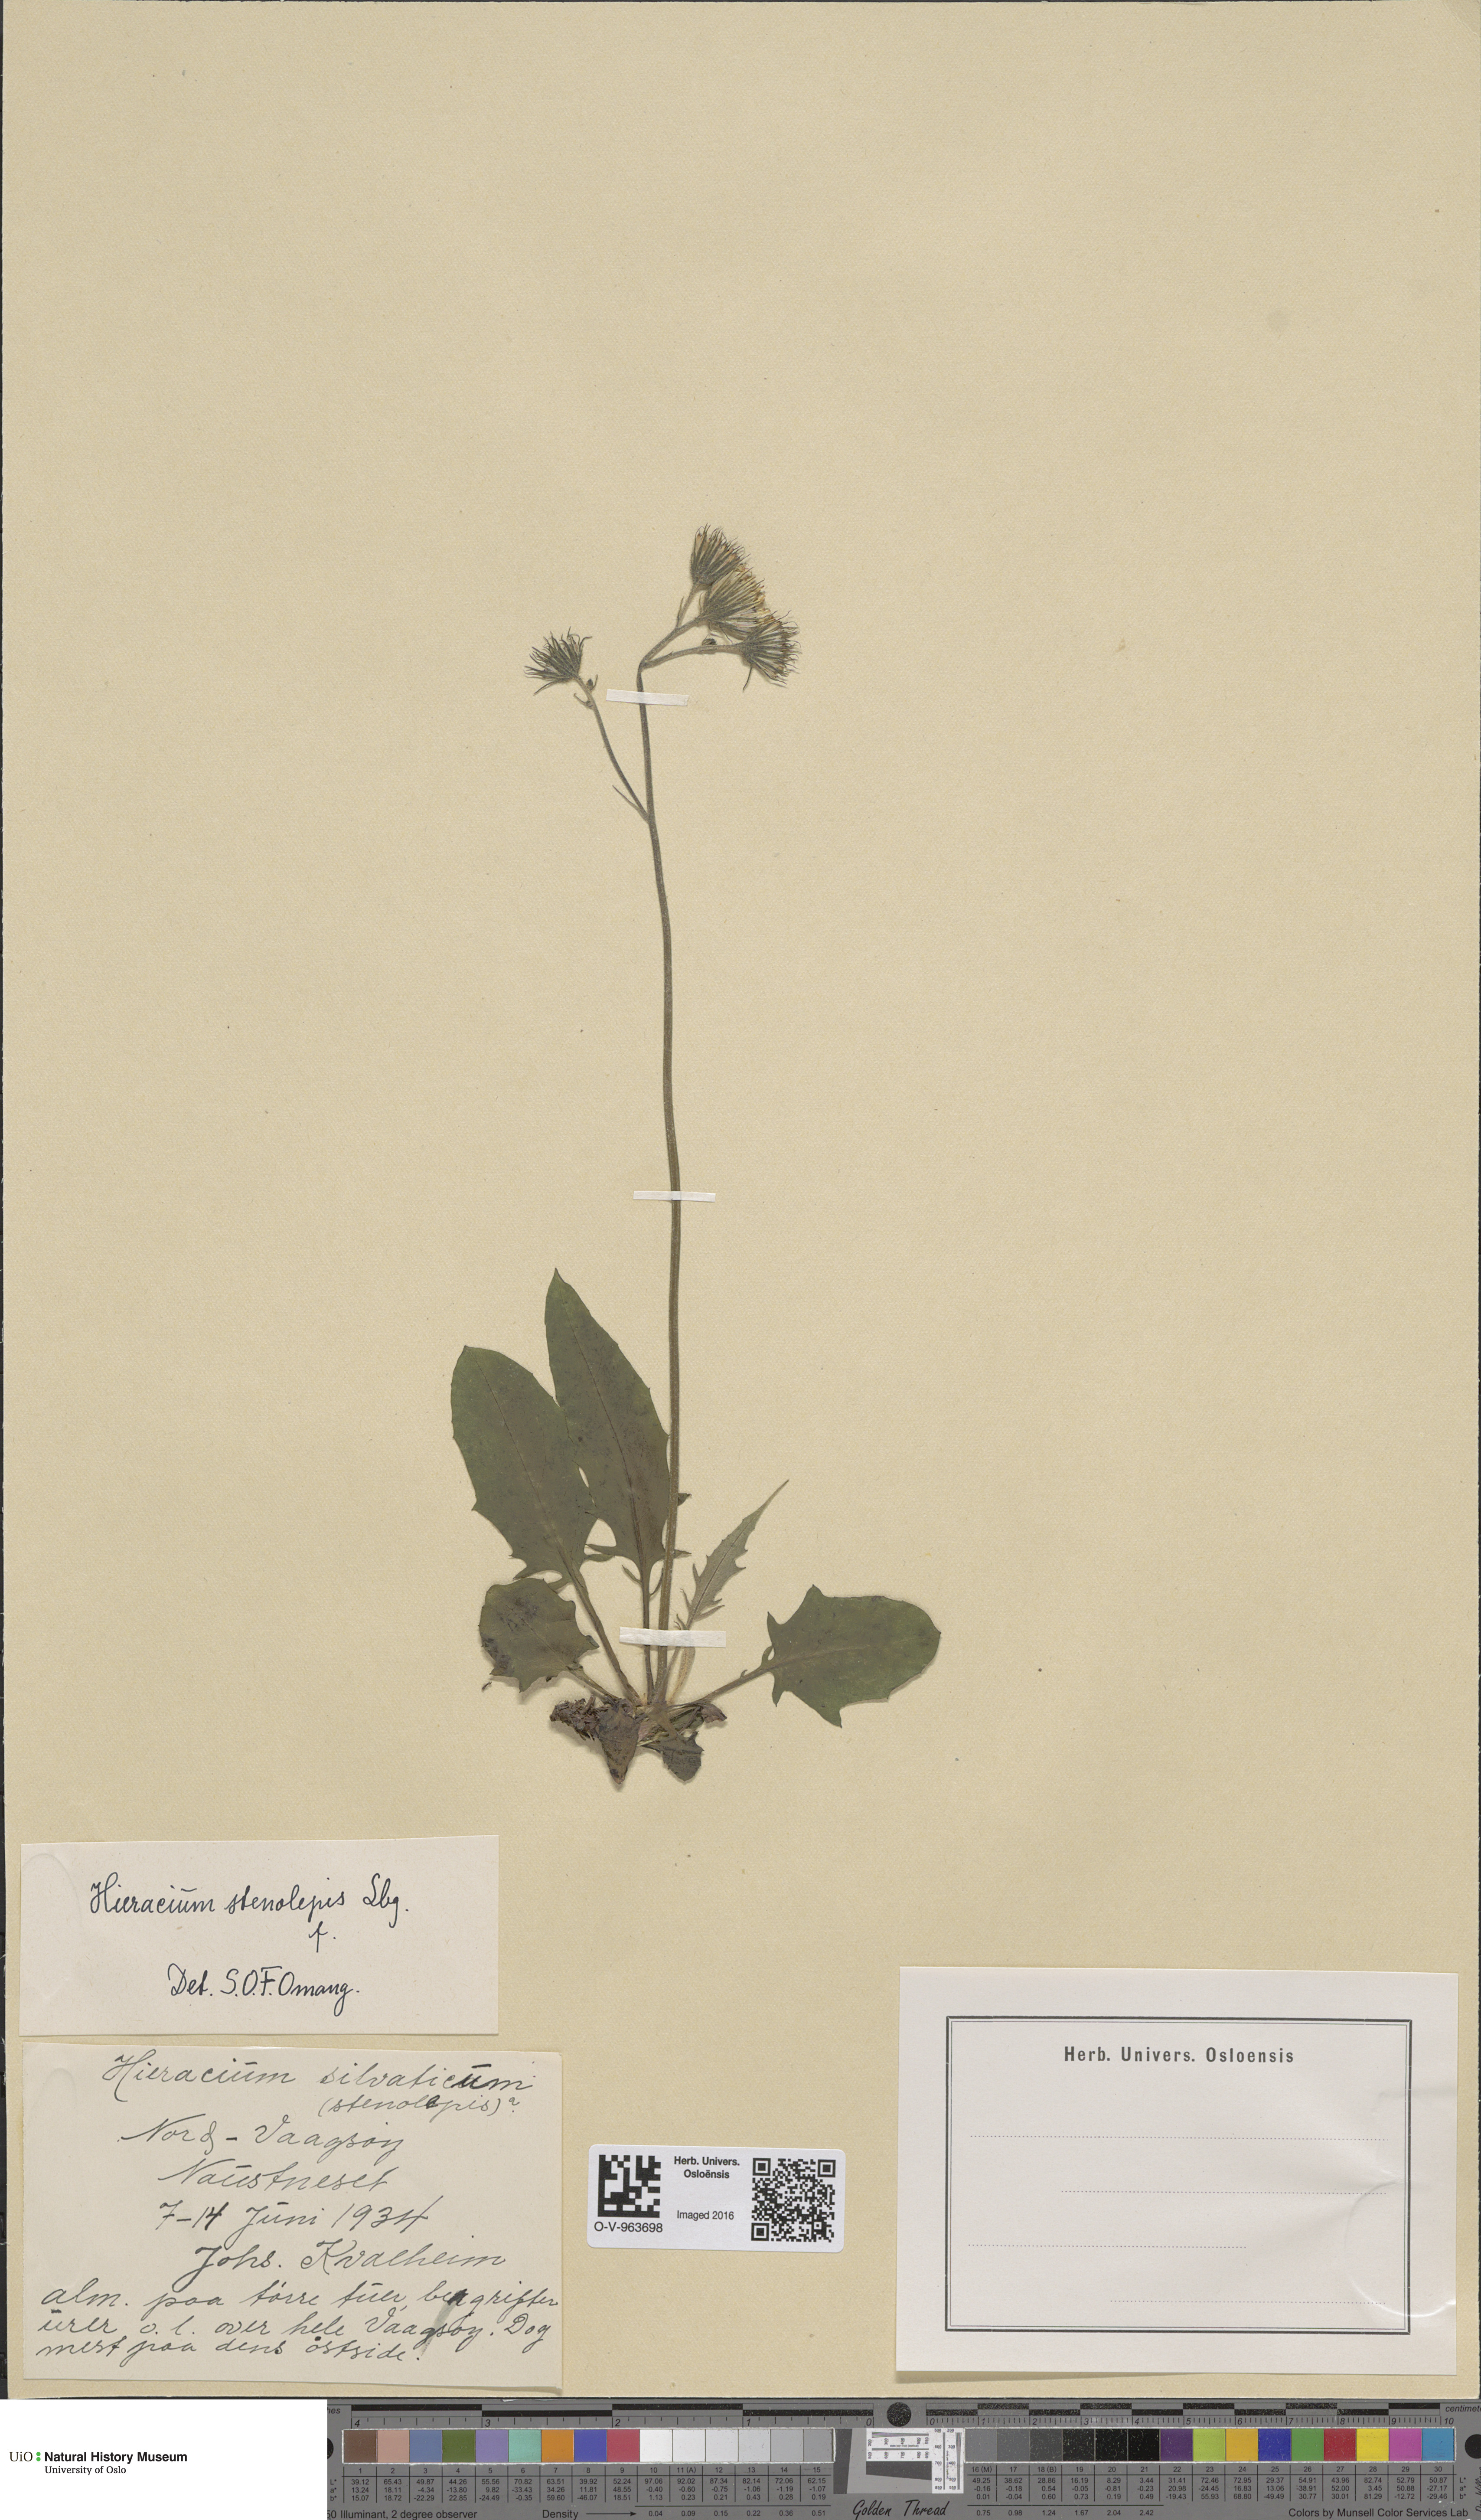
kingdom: Plantae
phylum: Tracheophyta
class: Magnoliopsida
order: Asterales
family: Asteraceae
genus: Hieracium
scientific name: Hieracium bifidum
